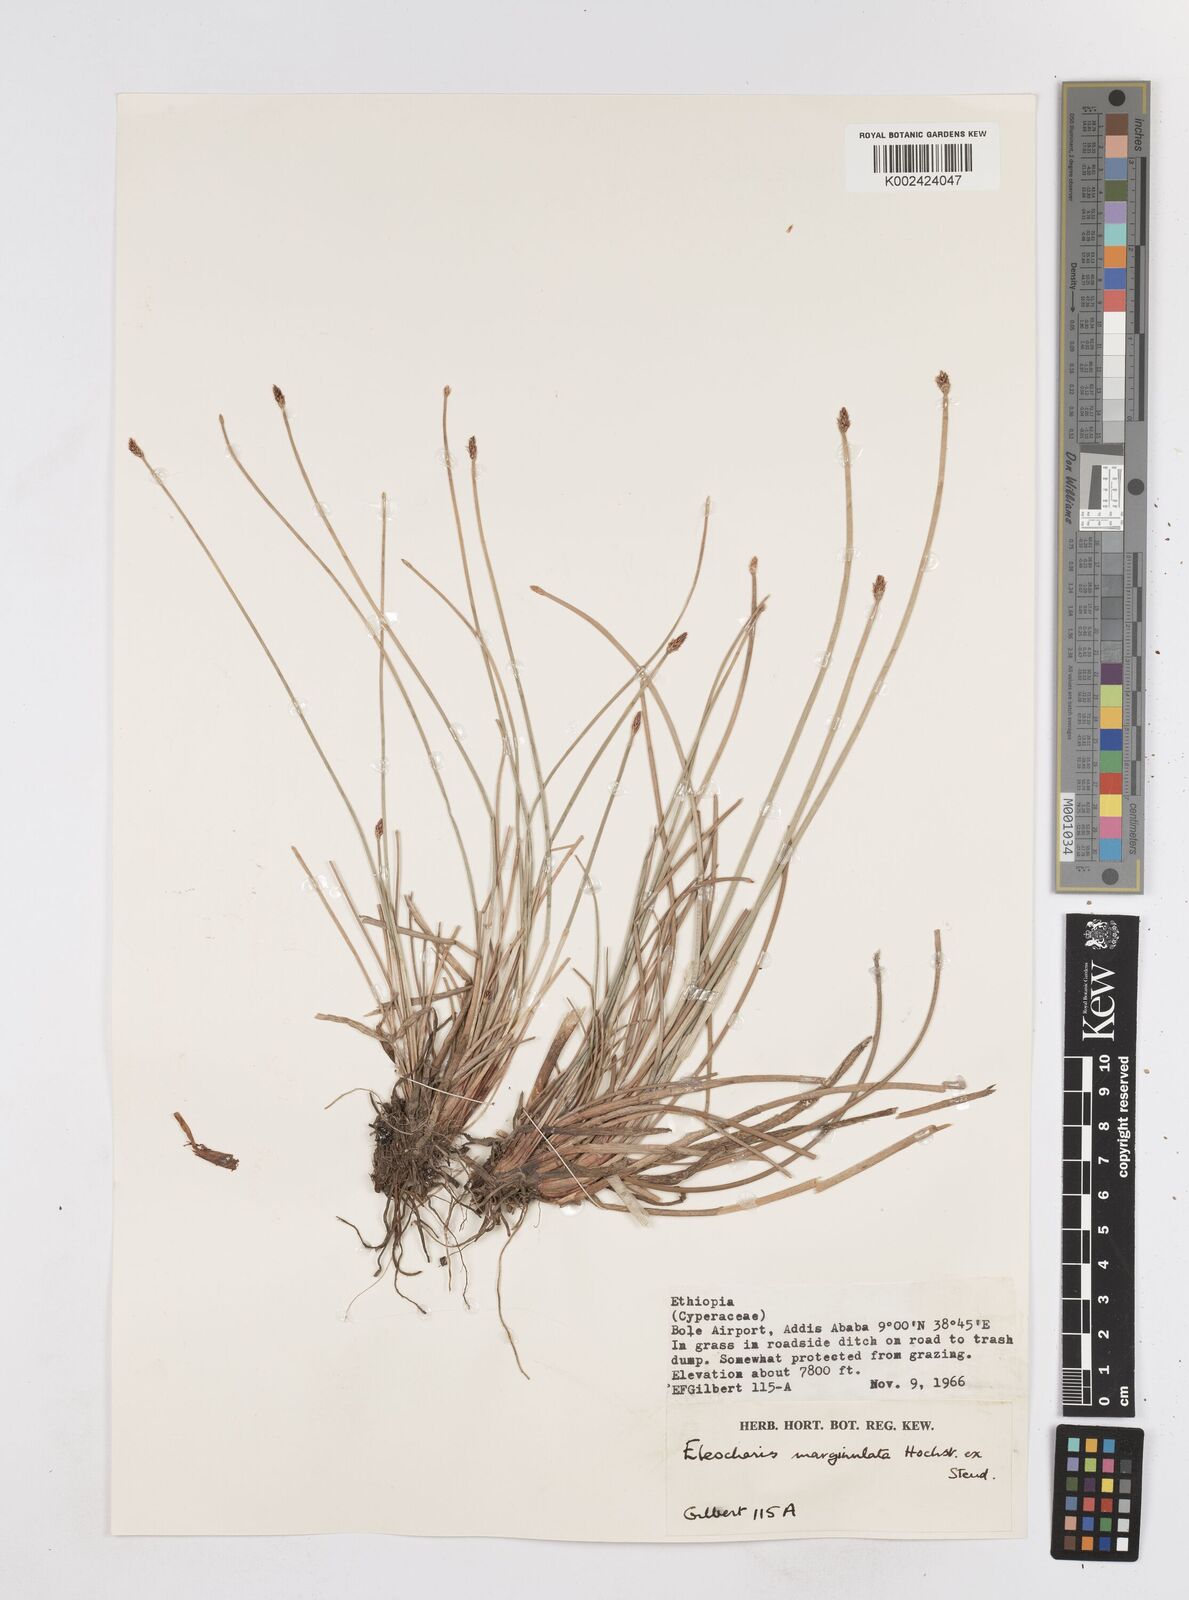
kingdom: Plantae
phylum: Tracheophyta
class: Liliopsida
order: Poales
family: Cyperaceae
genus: Eleocharis
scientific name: Eleocharis marginulata
